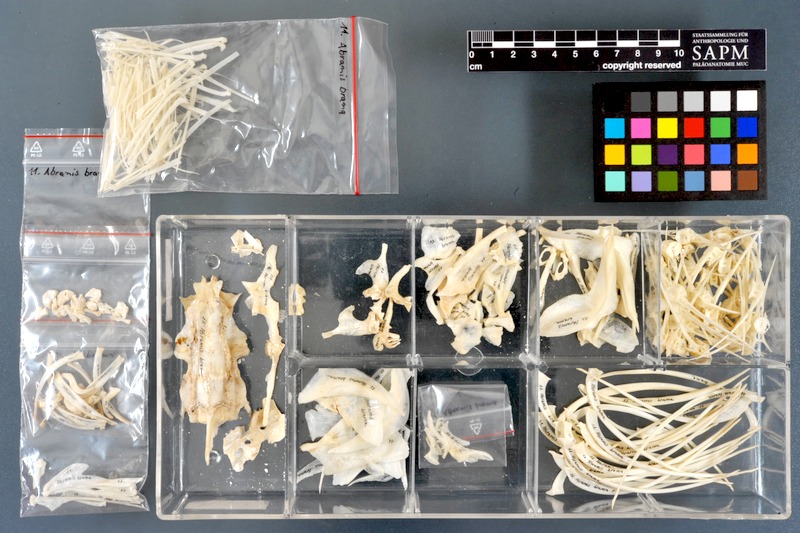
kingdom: Animalia
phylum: Chordata
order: Cypriniformes
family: Cyprinidae
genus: Abramis
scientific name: Abramis brama
